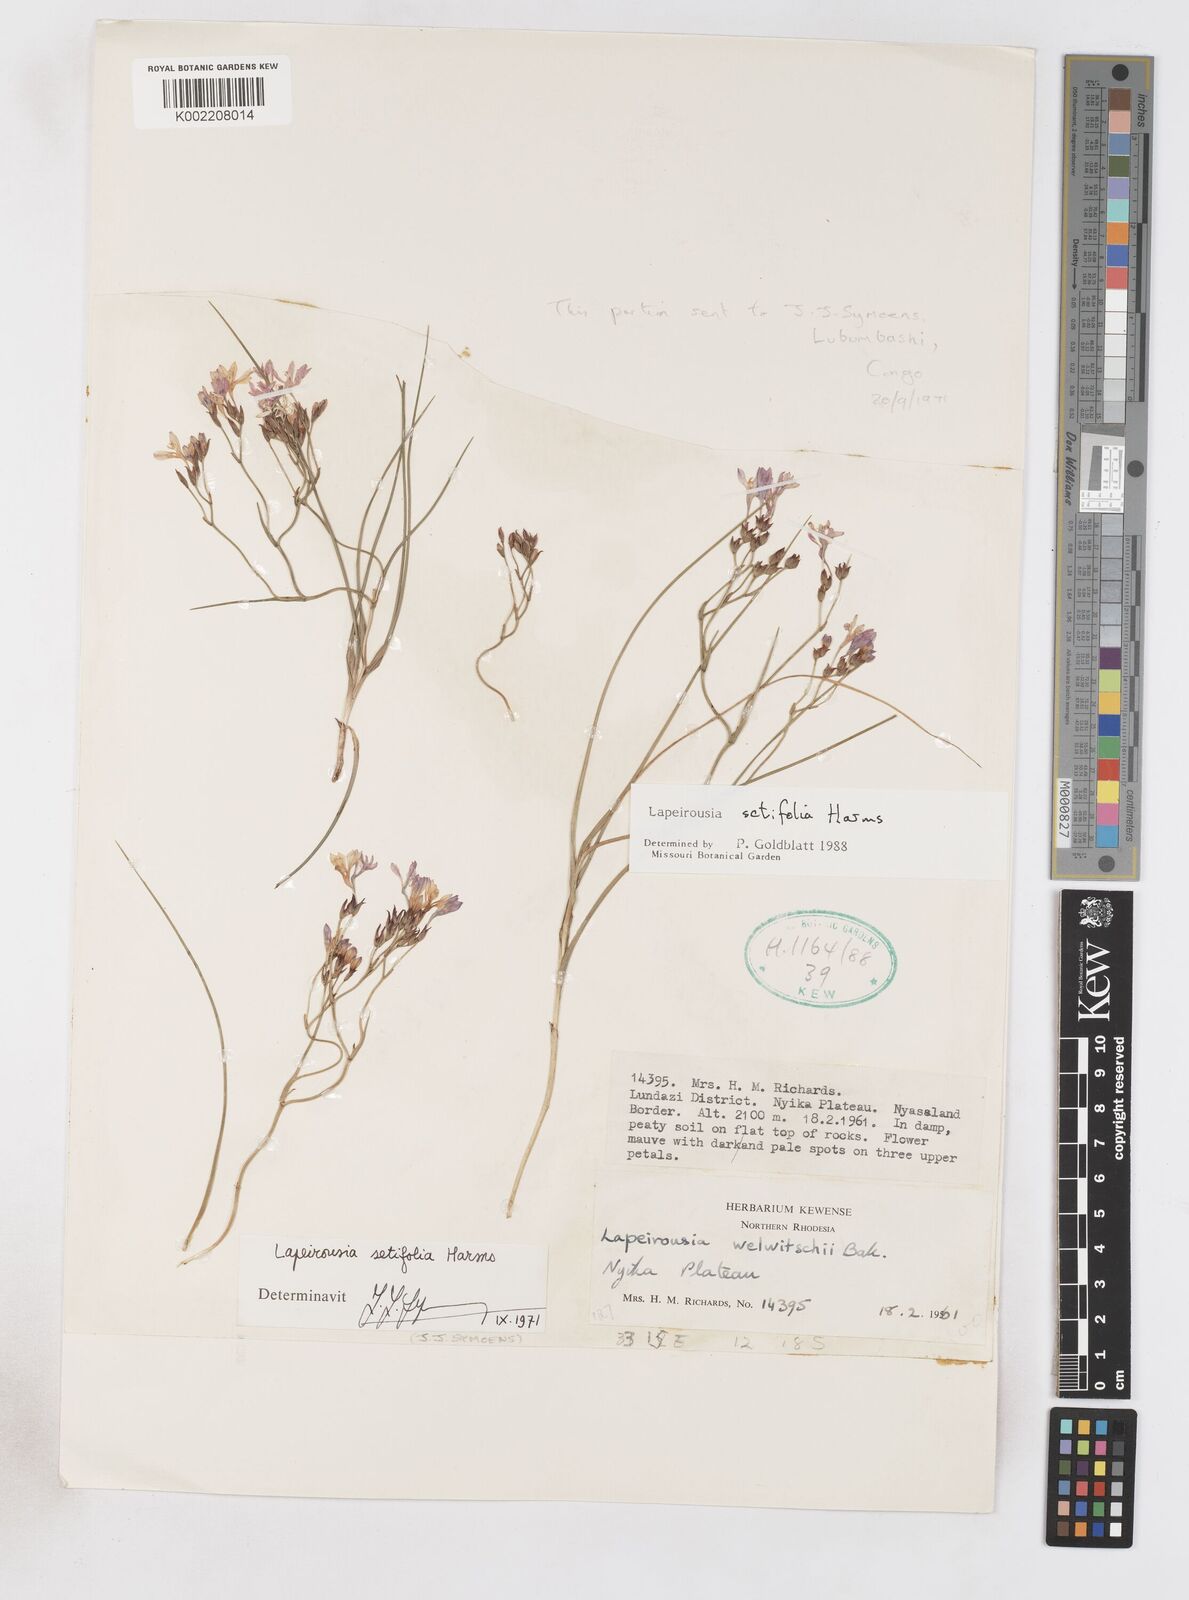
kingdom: Plantae
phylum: Tracheophyta
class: Liliopsida
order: Asparagales
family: Iridaceae
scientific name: Iridaceae
